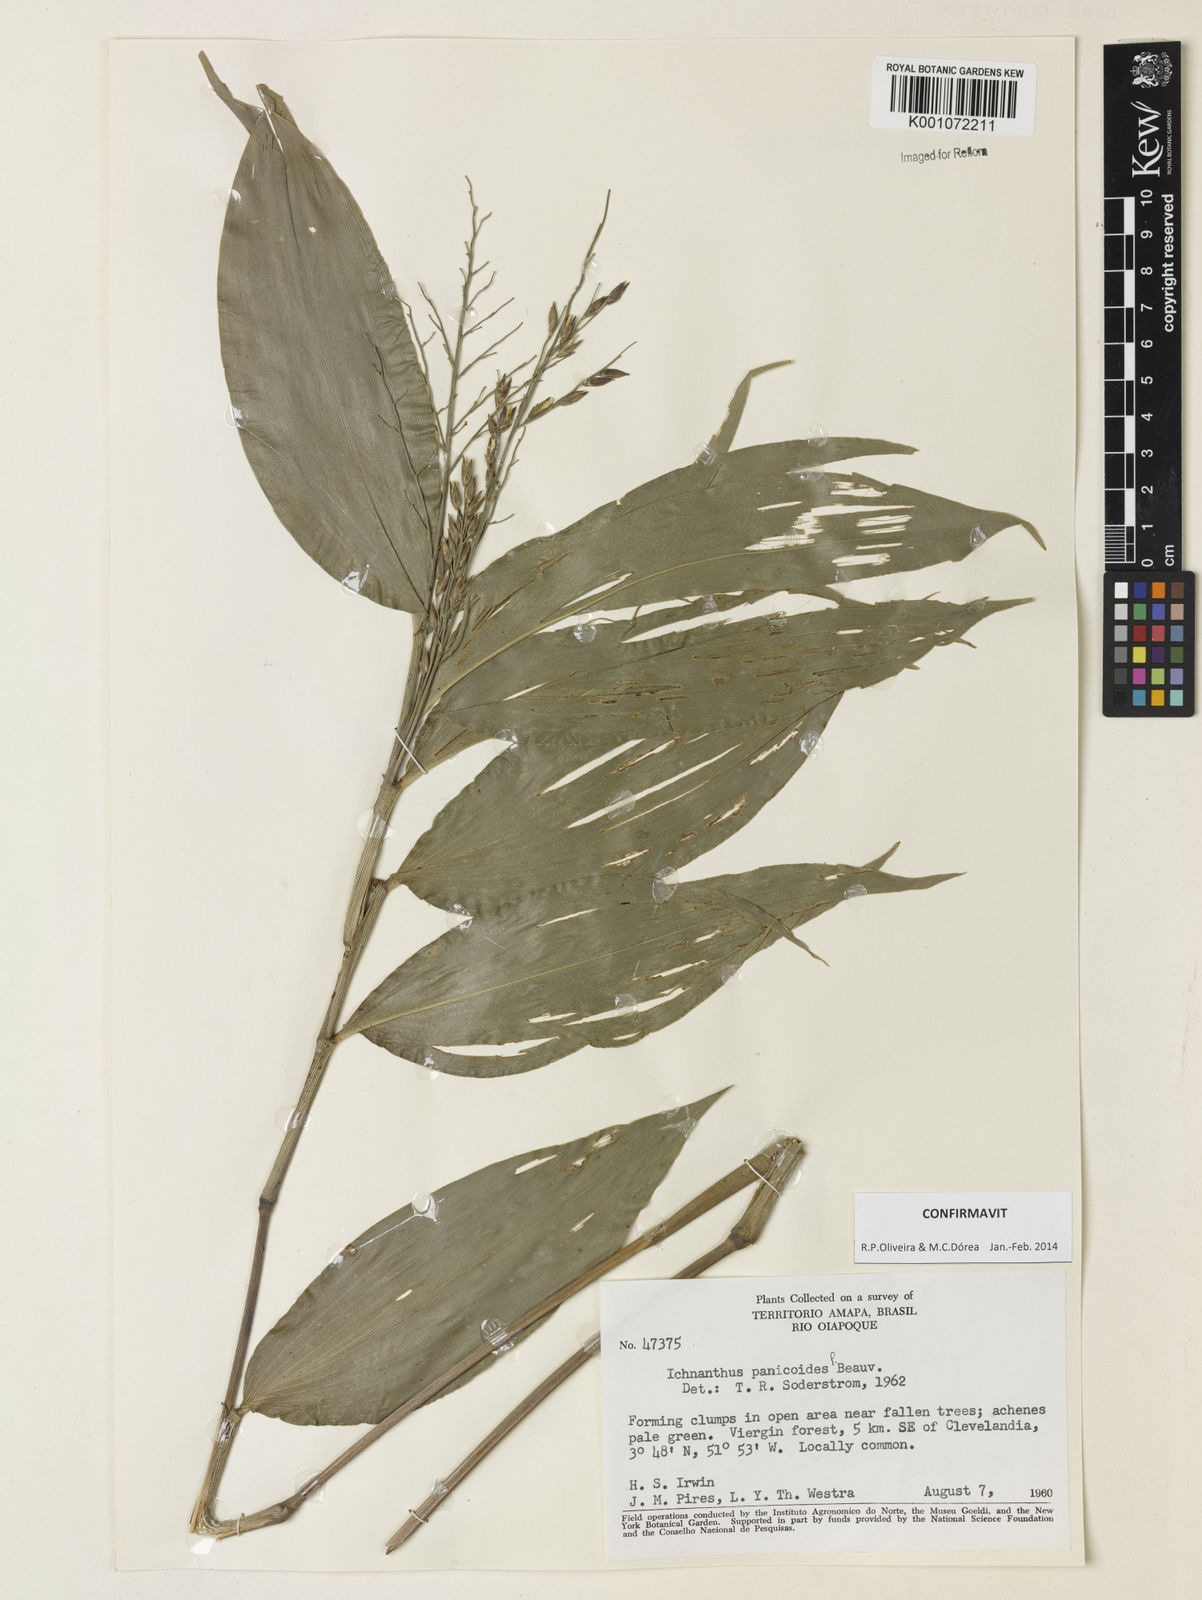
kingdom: Plantae
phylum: Tracheophyta
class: Liliopsida
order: Poales
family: Poaceae
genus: Ichnanthus
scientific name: Ichnanthus panicoides
